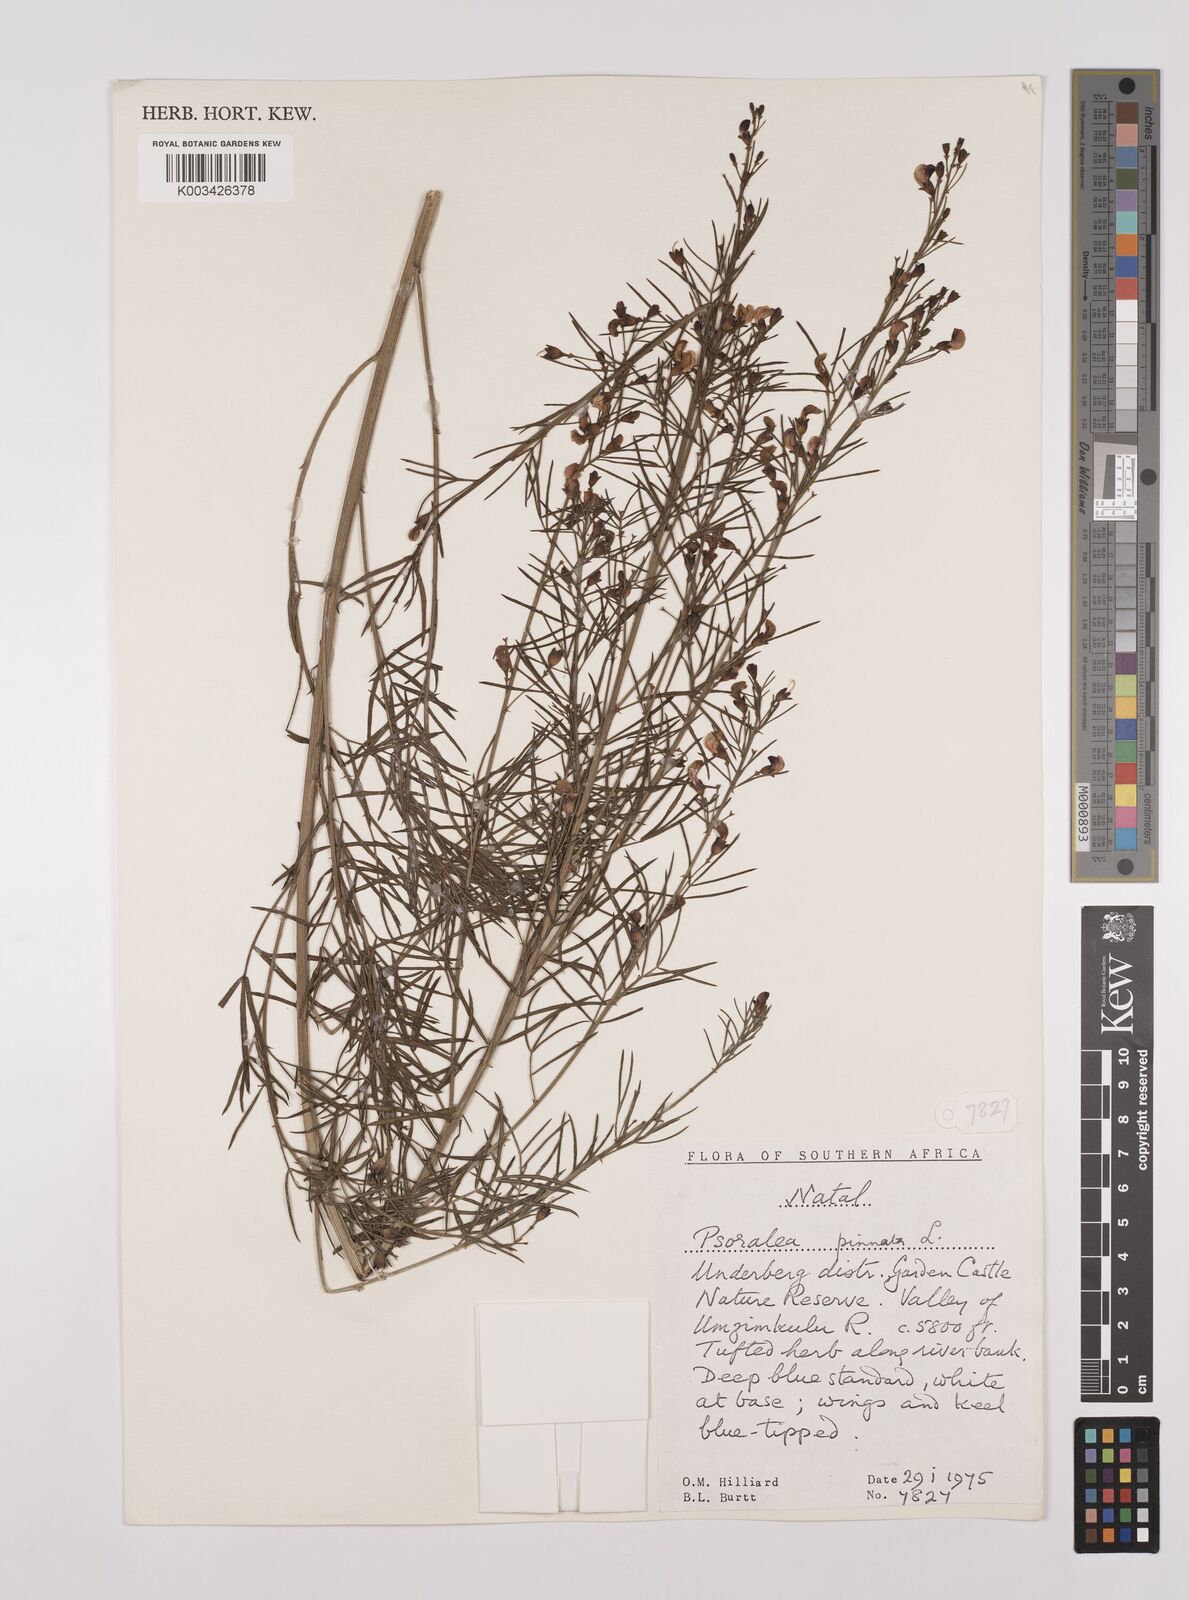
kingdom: Plantae
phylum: Tracheophyta
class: Magnoliopsida
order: Fabales
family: Fabaceae
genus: Psoralea
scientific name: Psoralea rhizotoma
